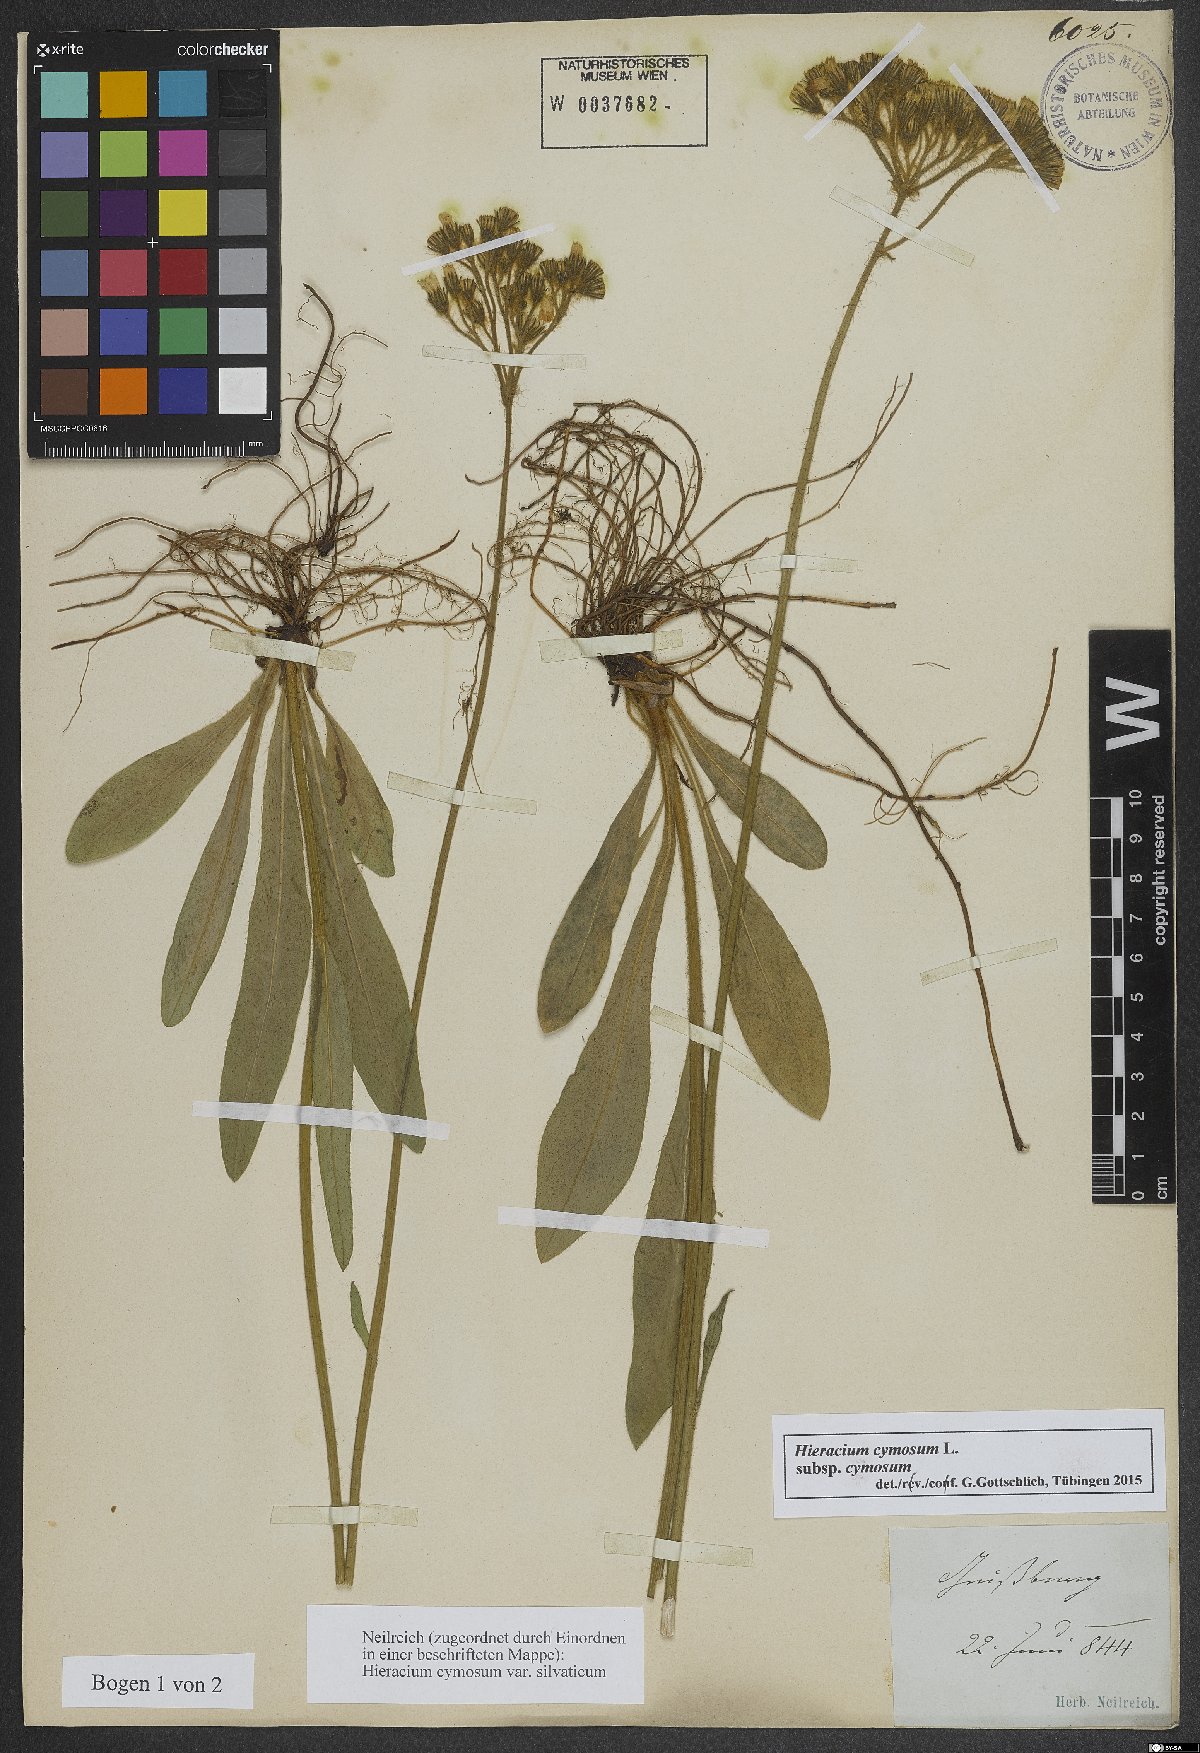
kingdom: Plantae
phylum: Tracheophyta
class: Magnoliopsida
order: Asterales
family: Asteraceae
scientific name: Asteraceae
